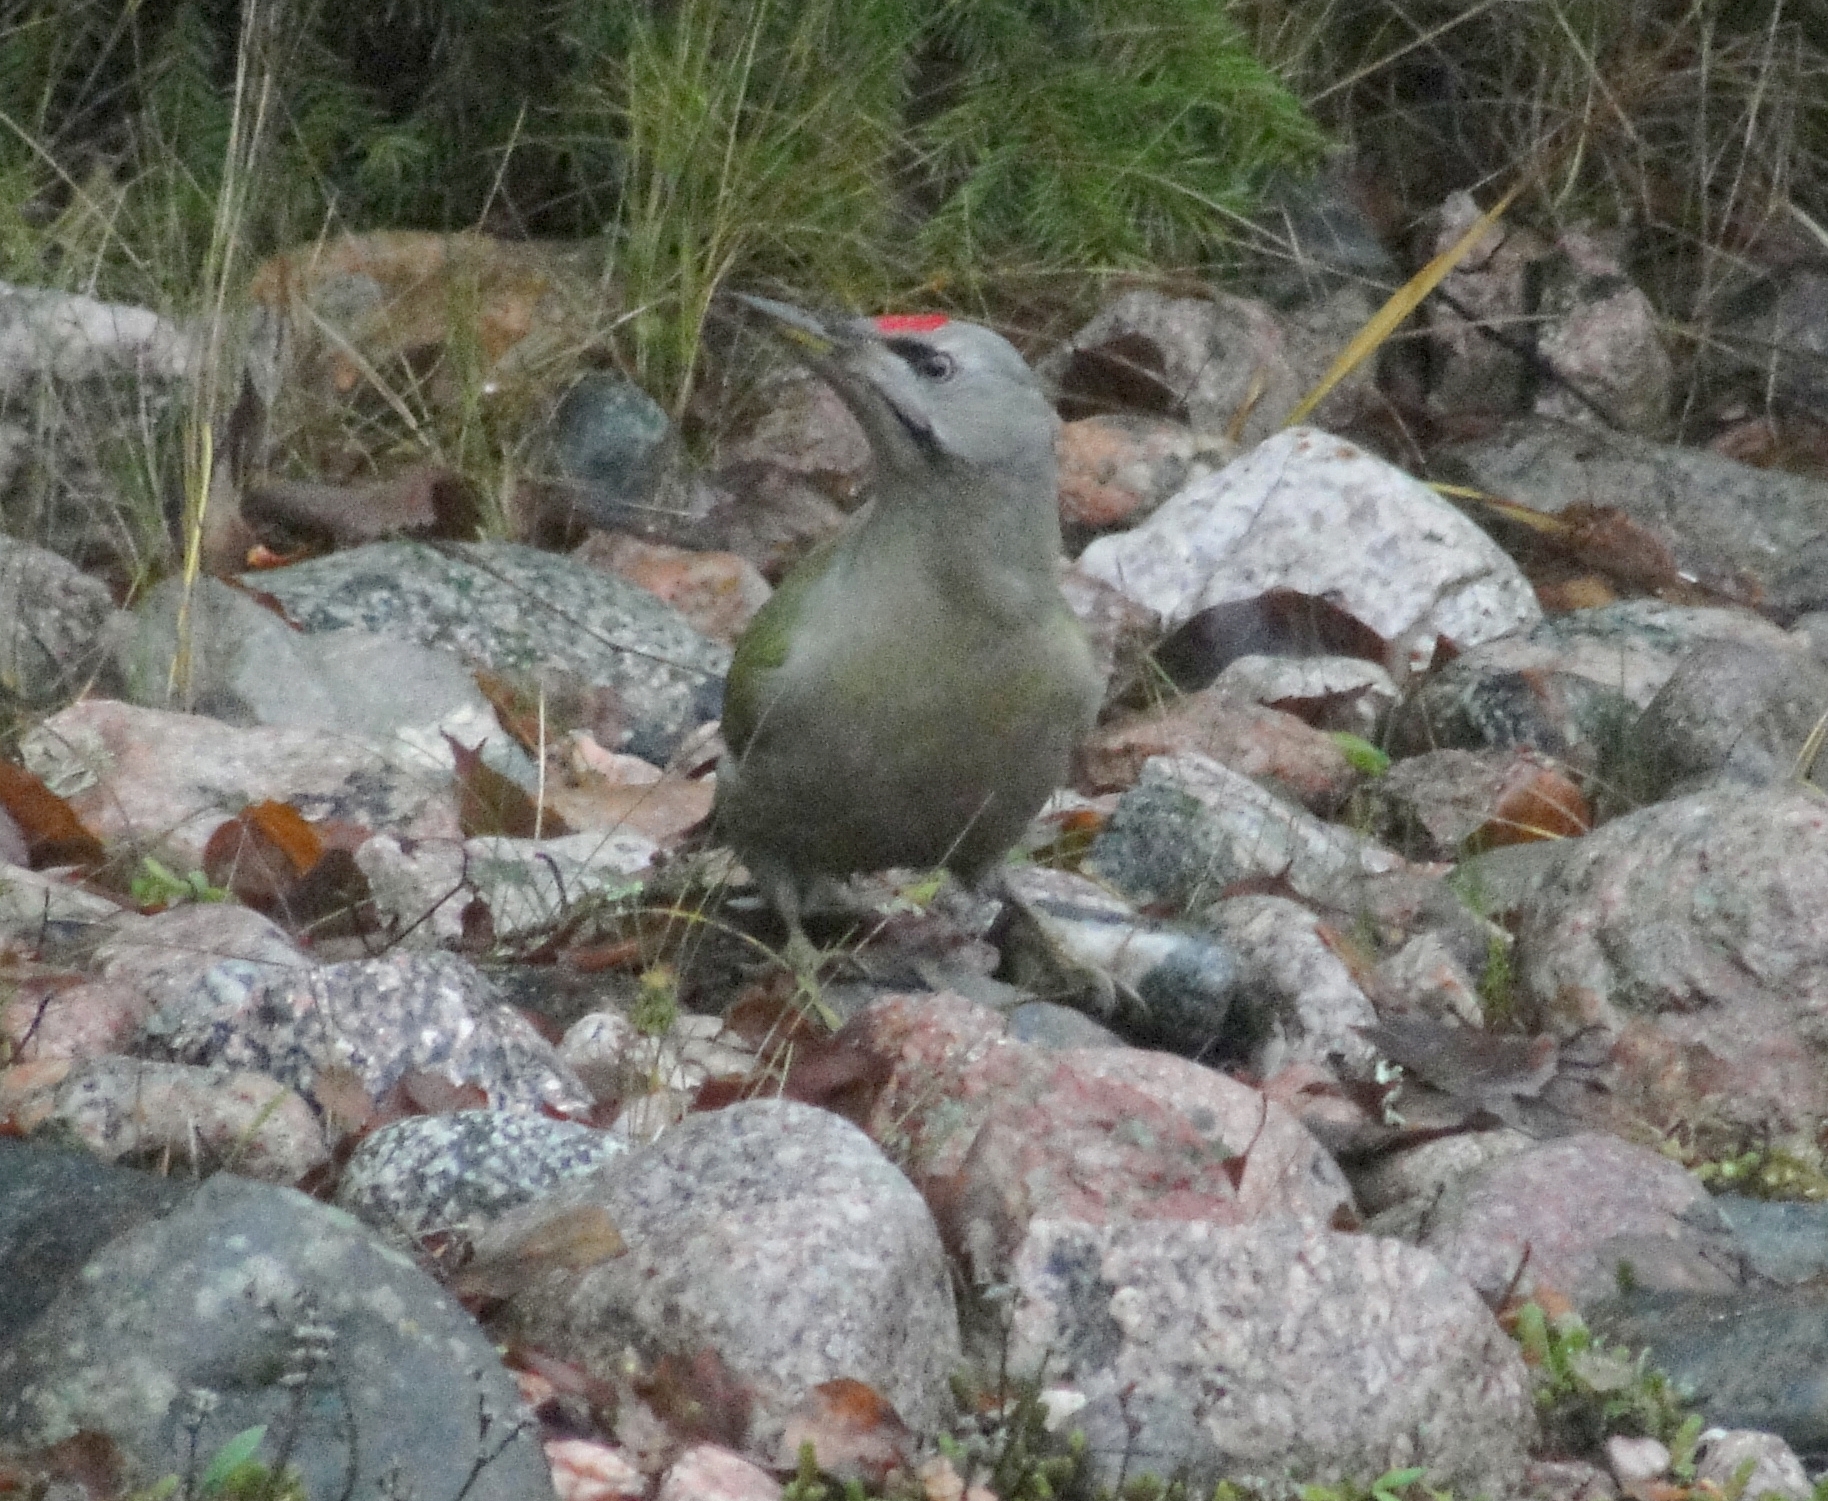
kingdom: Animalia
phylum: Chordata
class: Aves
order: Piciformes
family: Picidae
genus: Picus
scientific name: Picus canus
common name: Grey-headed woodpecker
